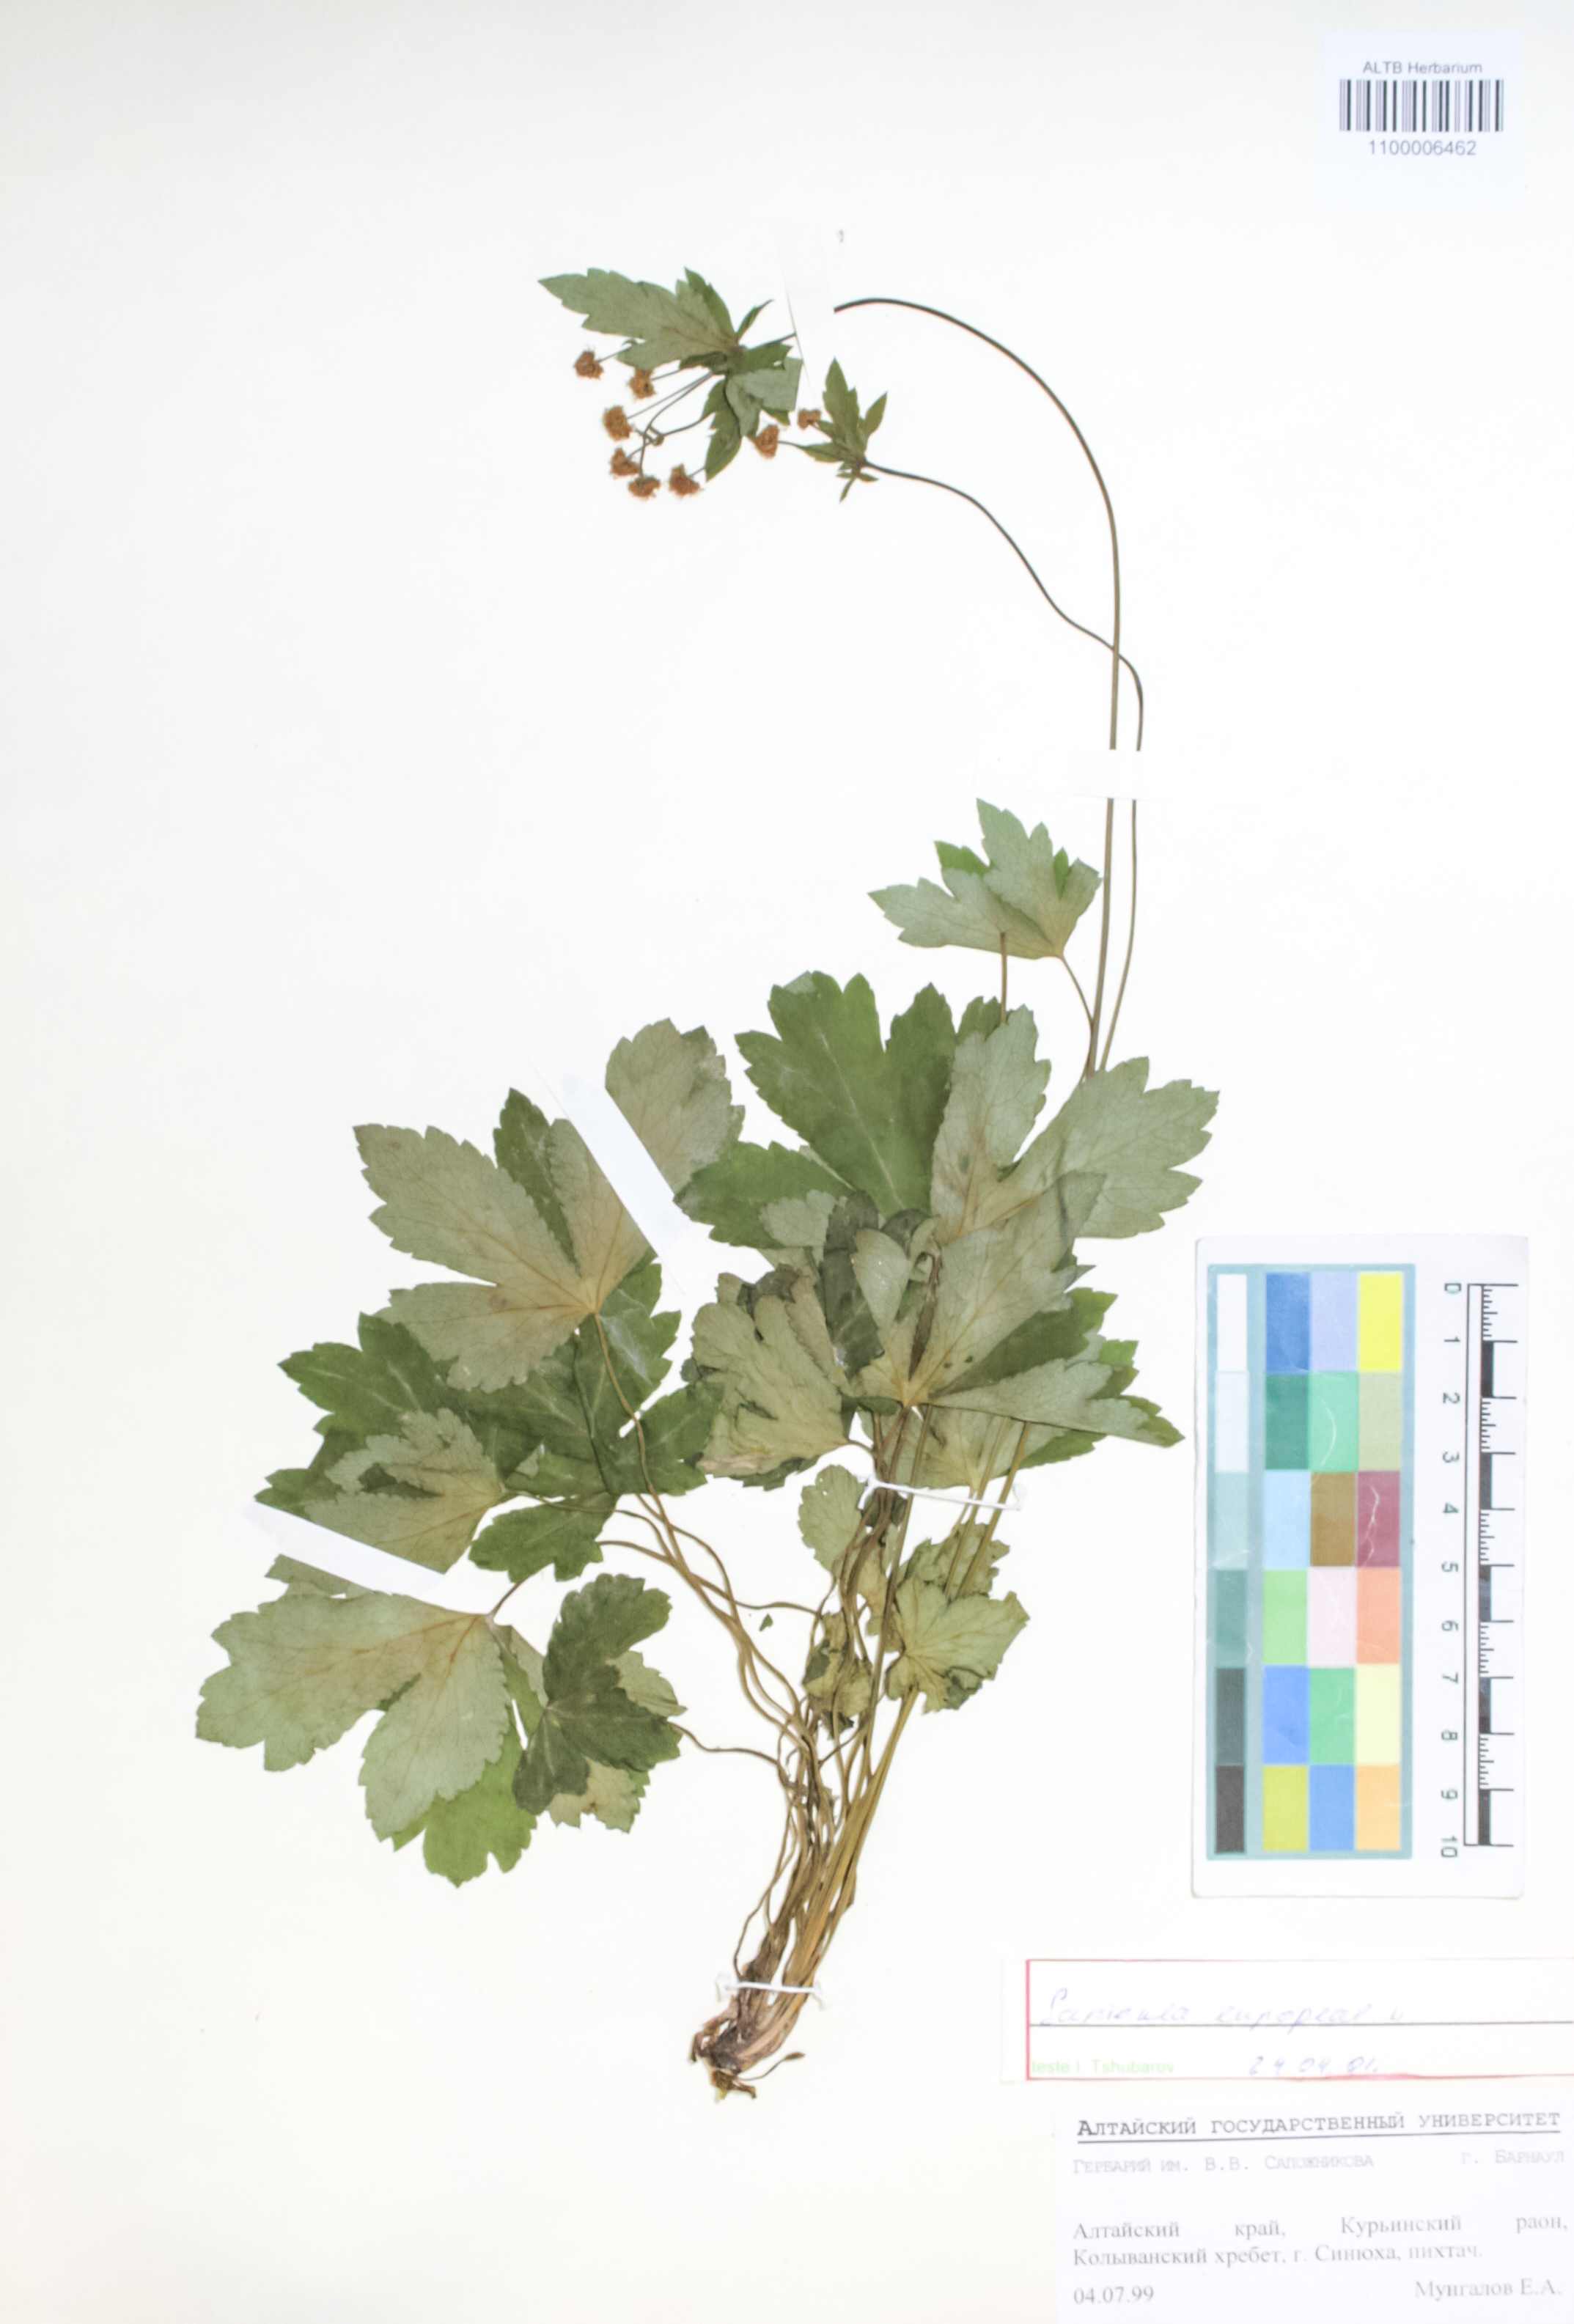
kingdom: Plantae
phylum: Tracheophyta
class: Magnoliopsida
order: Apiales
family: Apiaceae
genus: Sanicula
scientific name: Sanicula europaea
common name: Sanicle
